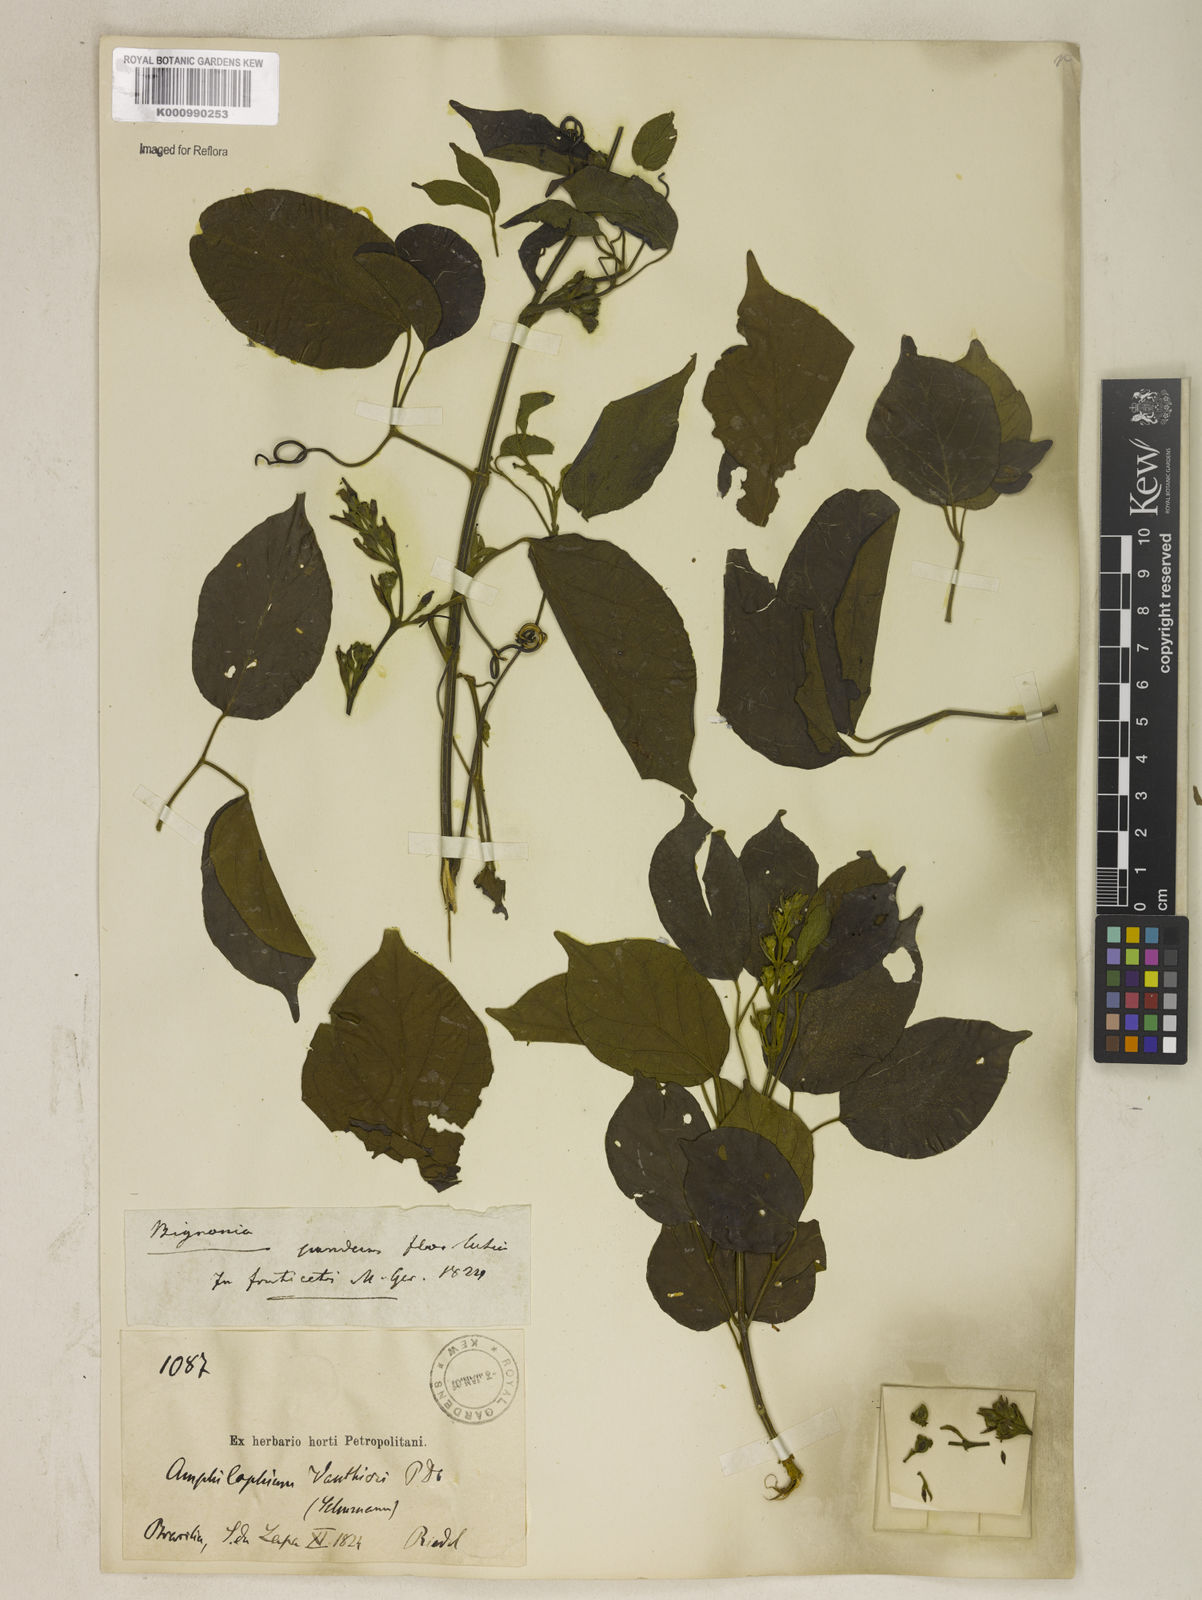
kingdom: Plantae
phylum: Tracheophyta
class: Magnoliopsida
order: Lamiales
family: Bignoniaceae
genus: Amphilophium
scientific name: Amphilophium paniculatum
